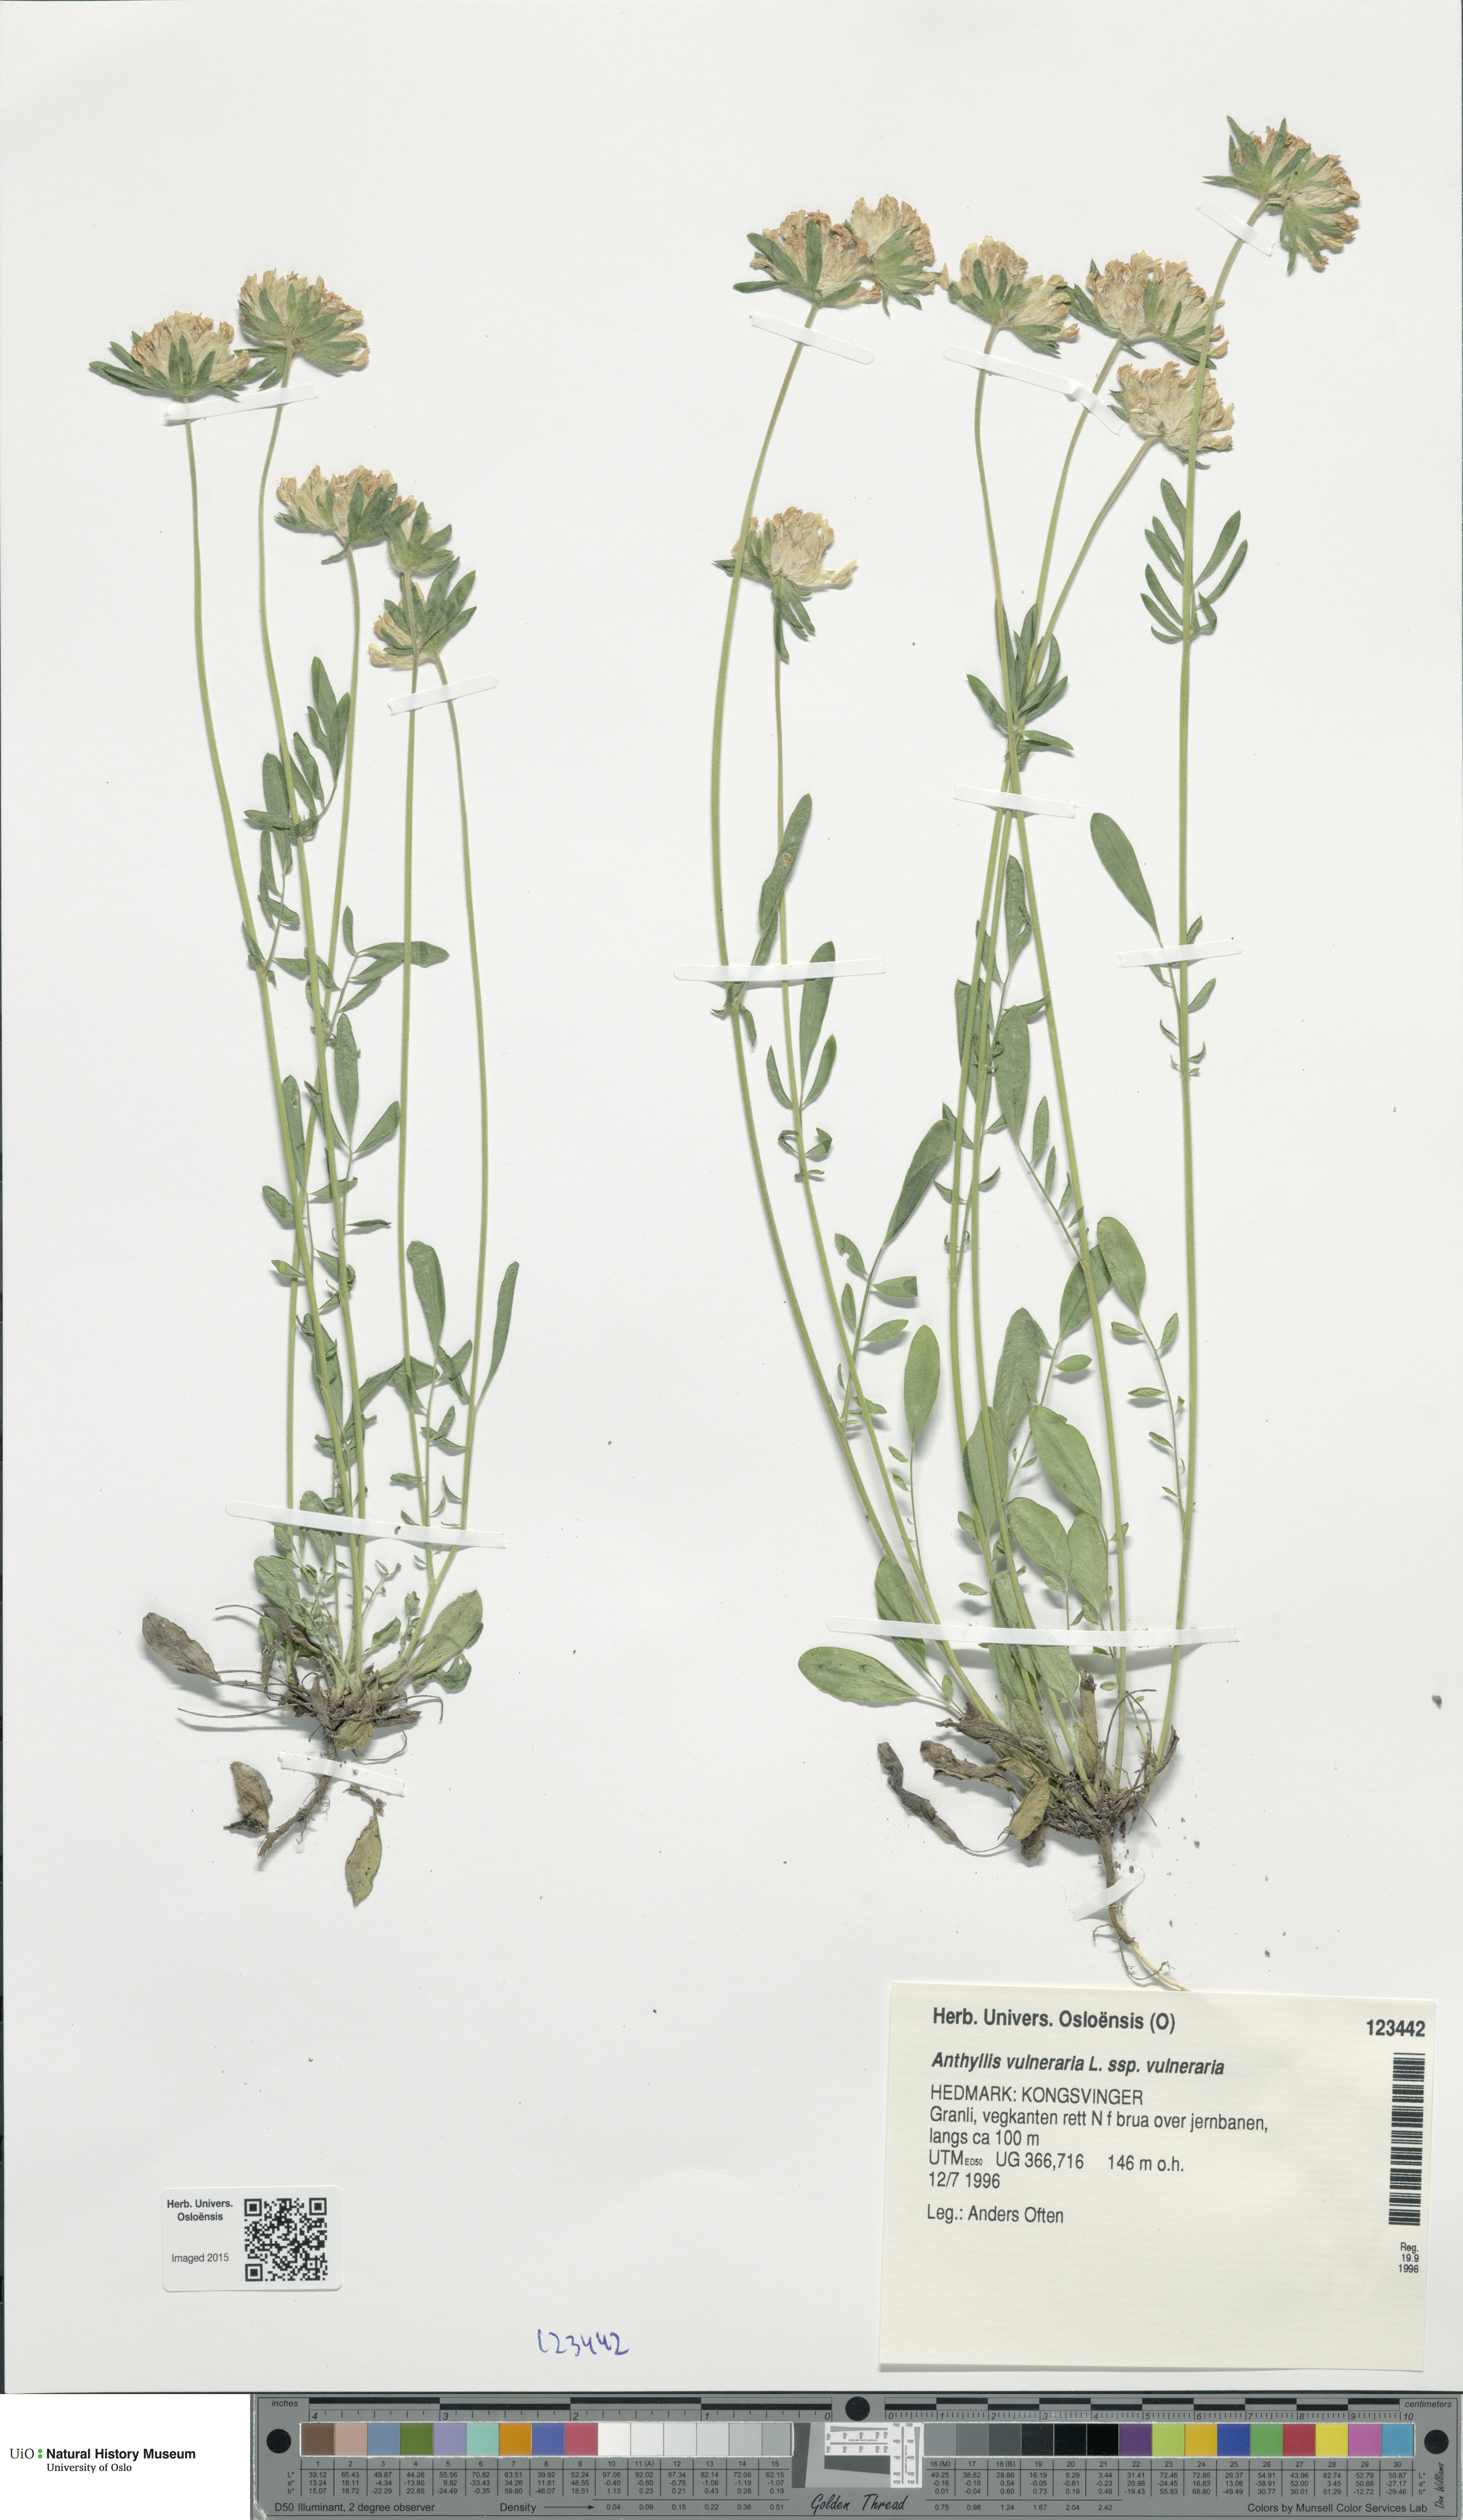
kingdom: Plantae
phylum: Tracheophyta
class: Magnoliopsida
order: Fabales
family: Fabaceae
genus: Anthyllis
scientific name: Anthyllis vulneraria
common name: Kidney vetch
